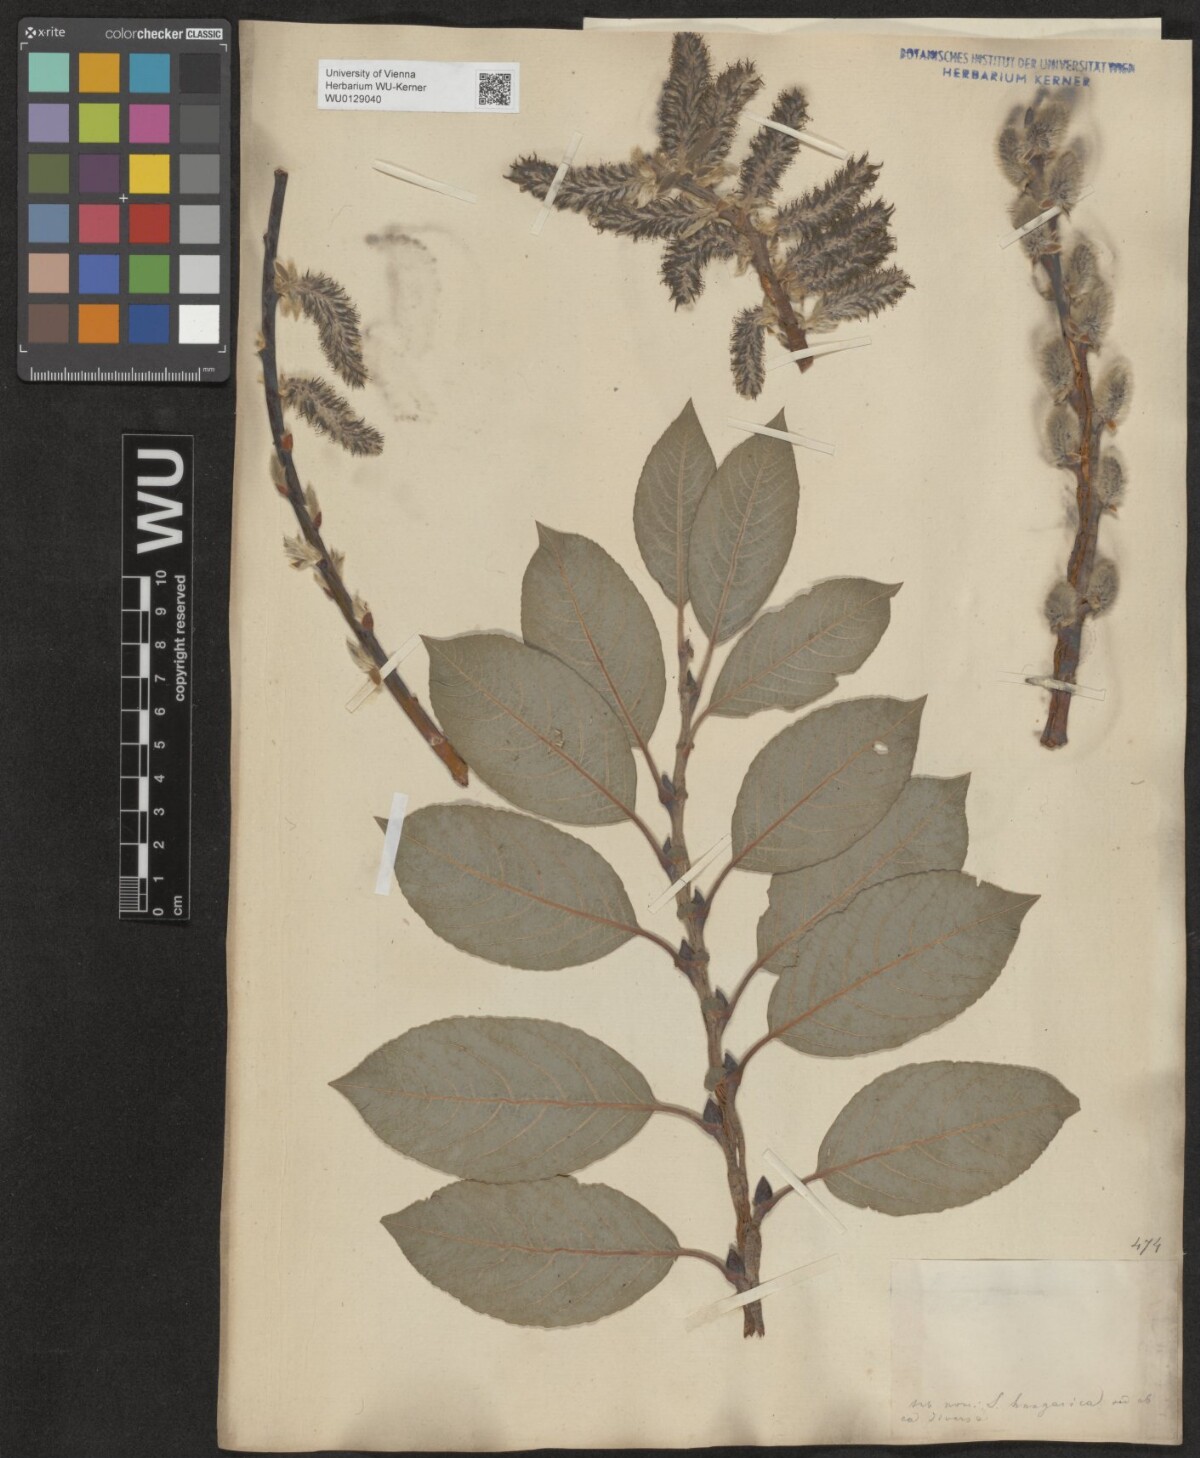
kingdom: Plantae
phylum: Tracheophyta
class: Magnoliopsida
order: Malpighiales
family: Salicaceae
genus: Salix
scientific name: Salix erdingeri
